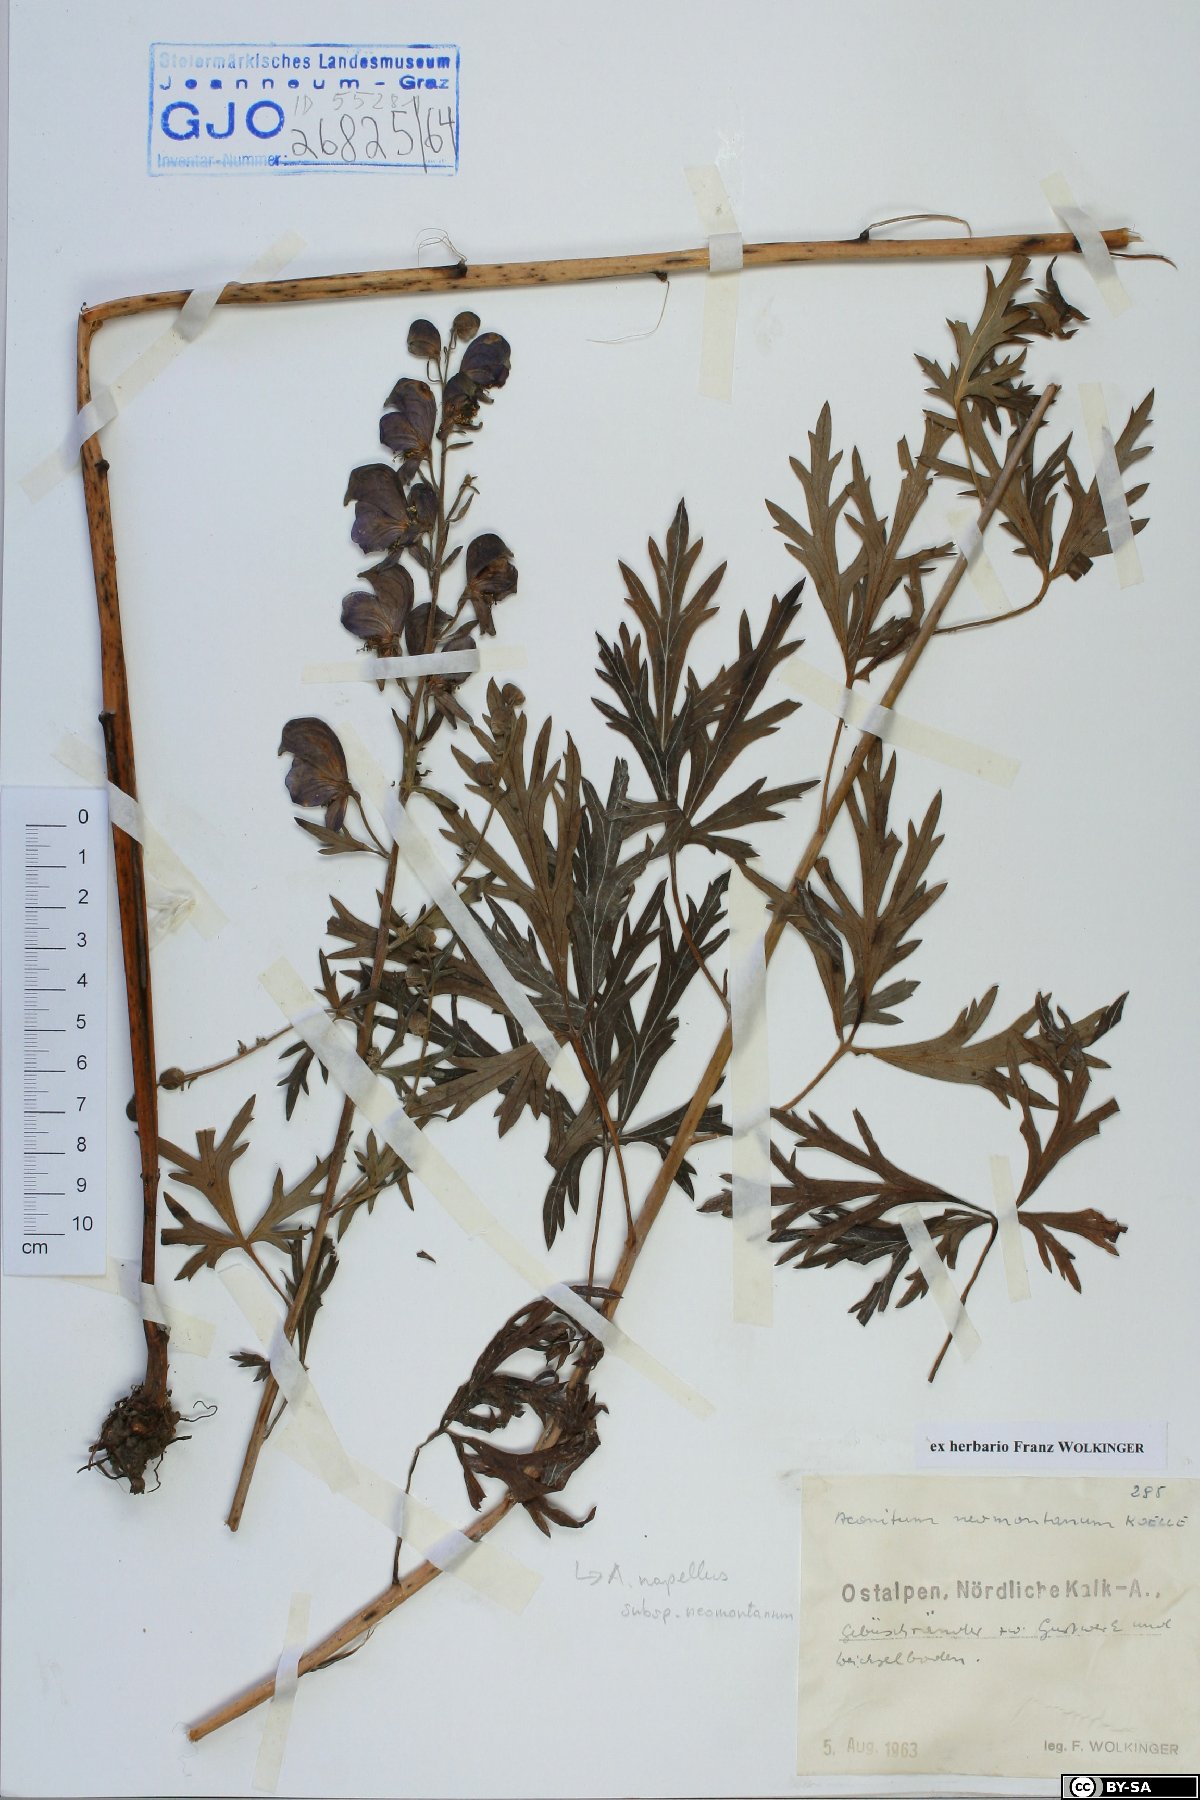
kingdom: Plantae
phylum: Tracheophyta
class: Magnoliopsida
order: Ranunculales
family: Ranunculaceae
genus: Aconitum
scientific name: Aconitum napellus
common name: Garden monkshood
